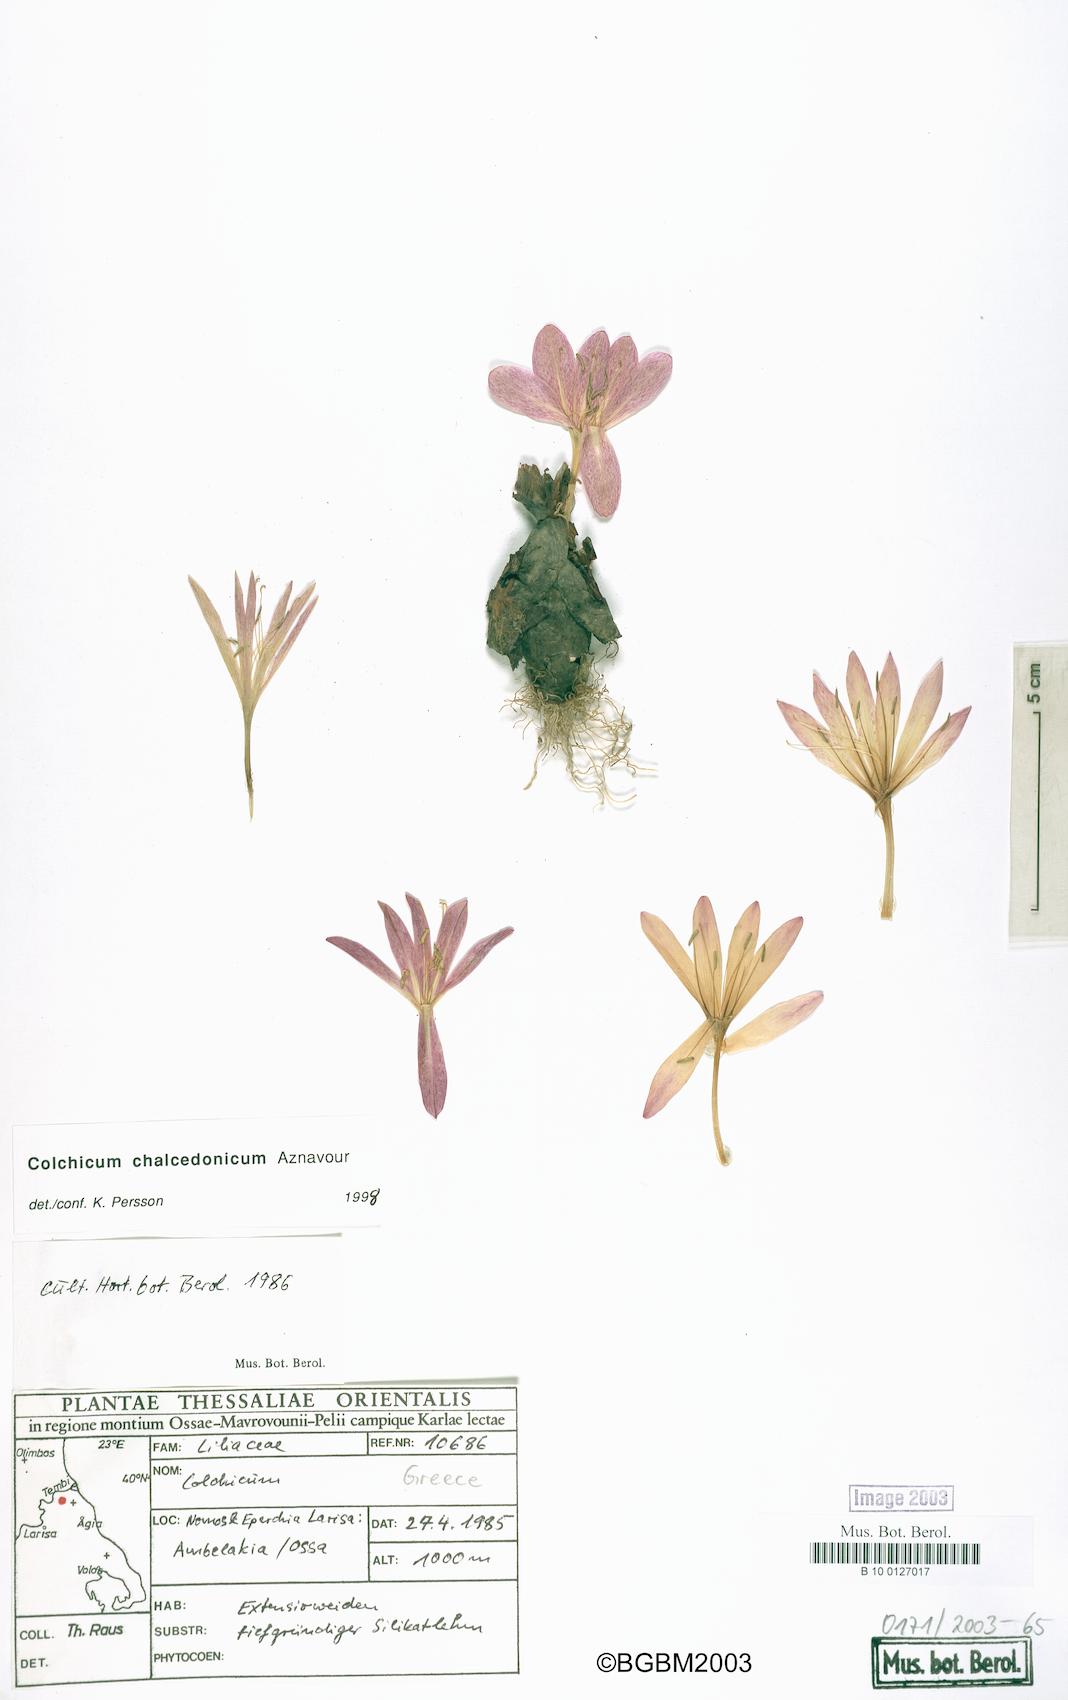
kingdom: Plantae
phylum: Tracheophyta
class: Liliopsida
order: Liliales
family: Colchicaceae
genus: Colchicum
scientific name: Colchicum chalcedonicum
